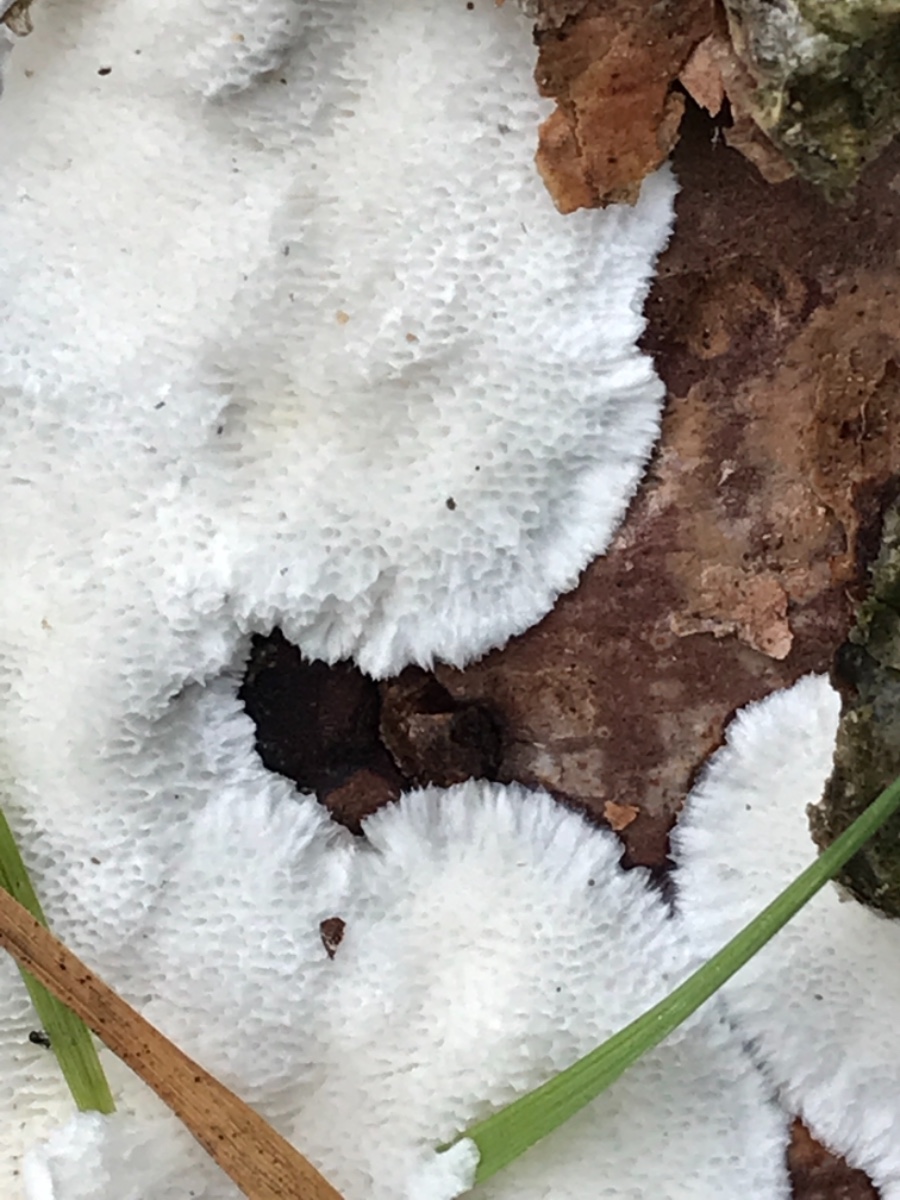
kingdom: Fungi
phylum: Basidiomycota
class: Agaricomycetes
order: Polyporales
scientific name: Polyporales
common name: poresvampordenen
